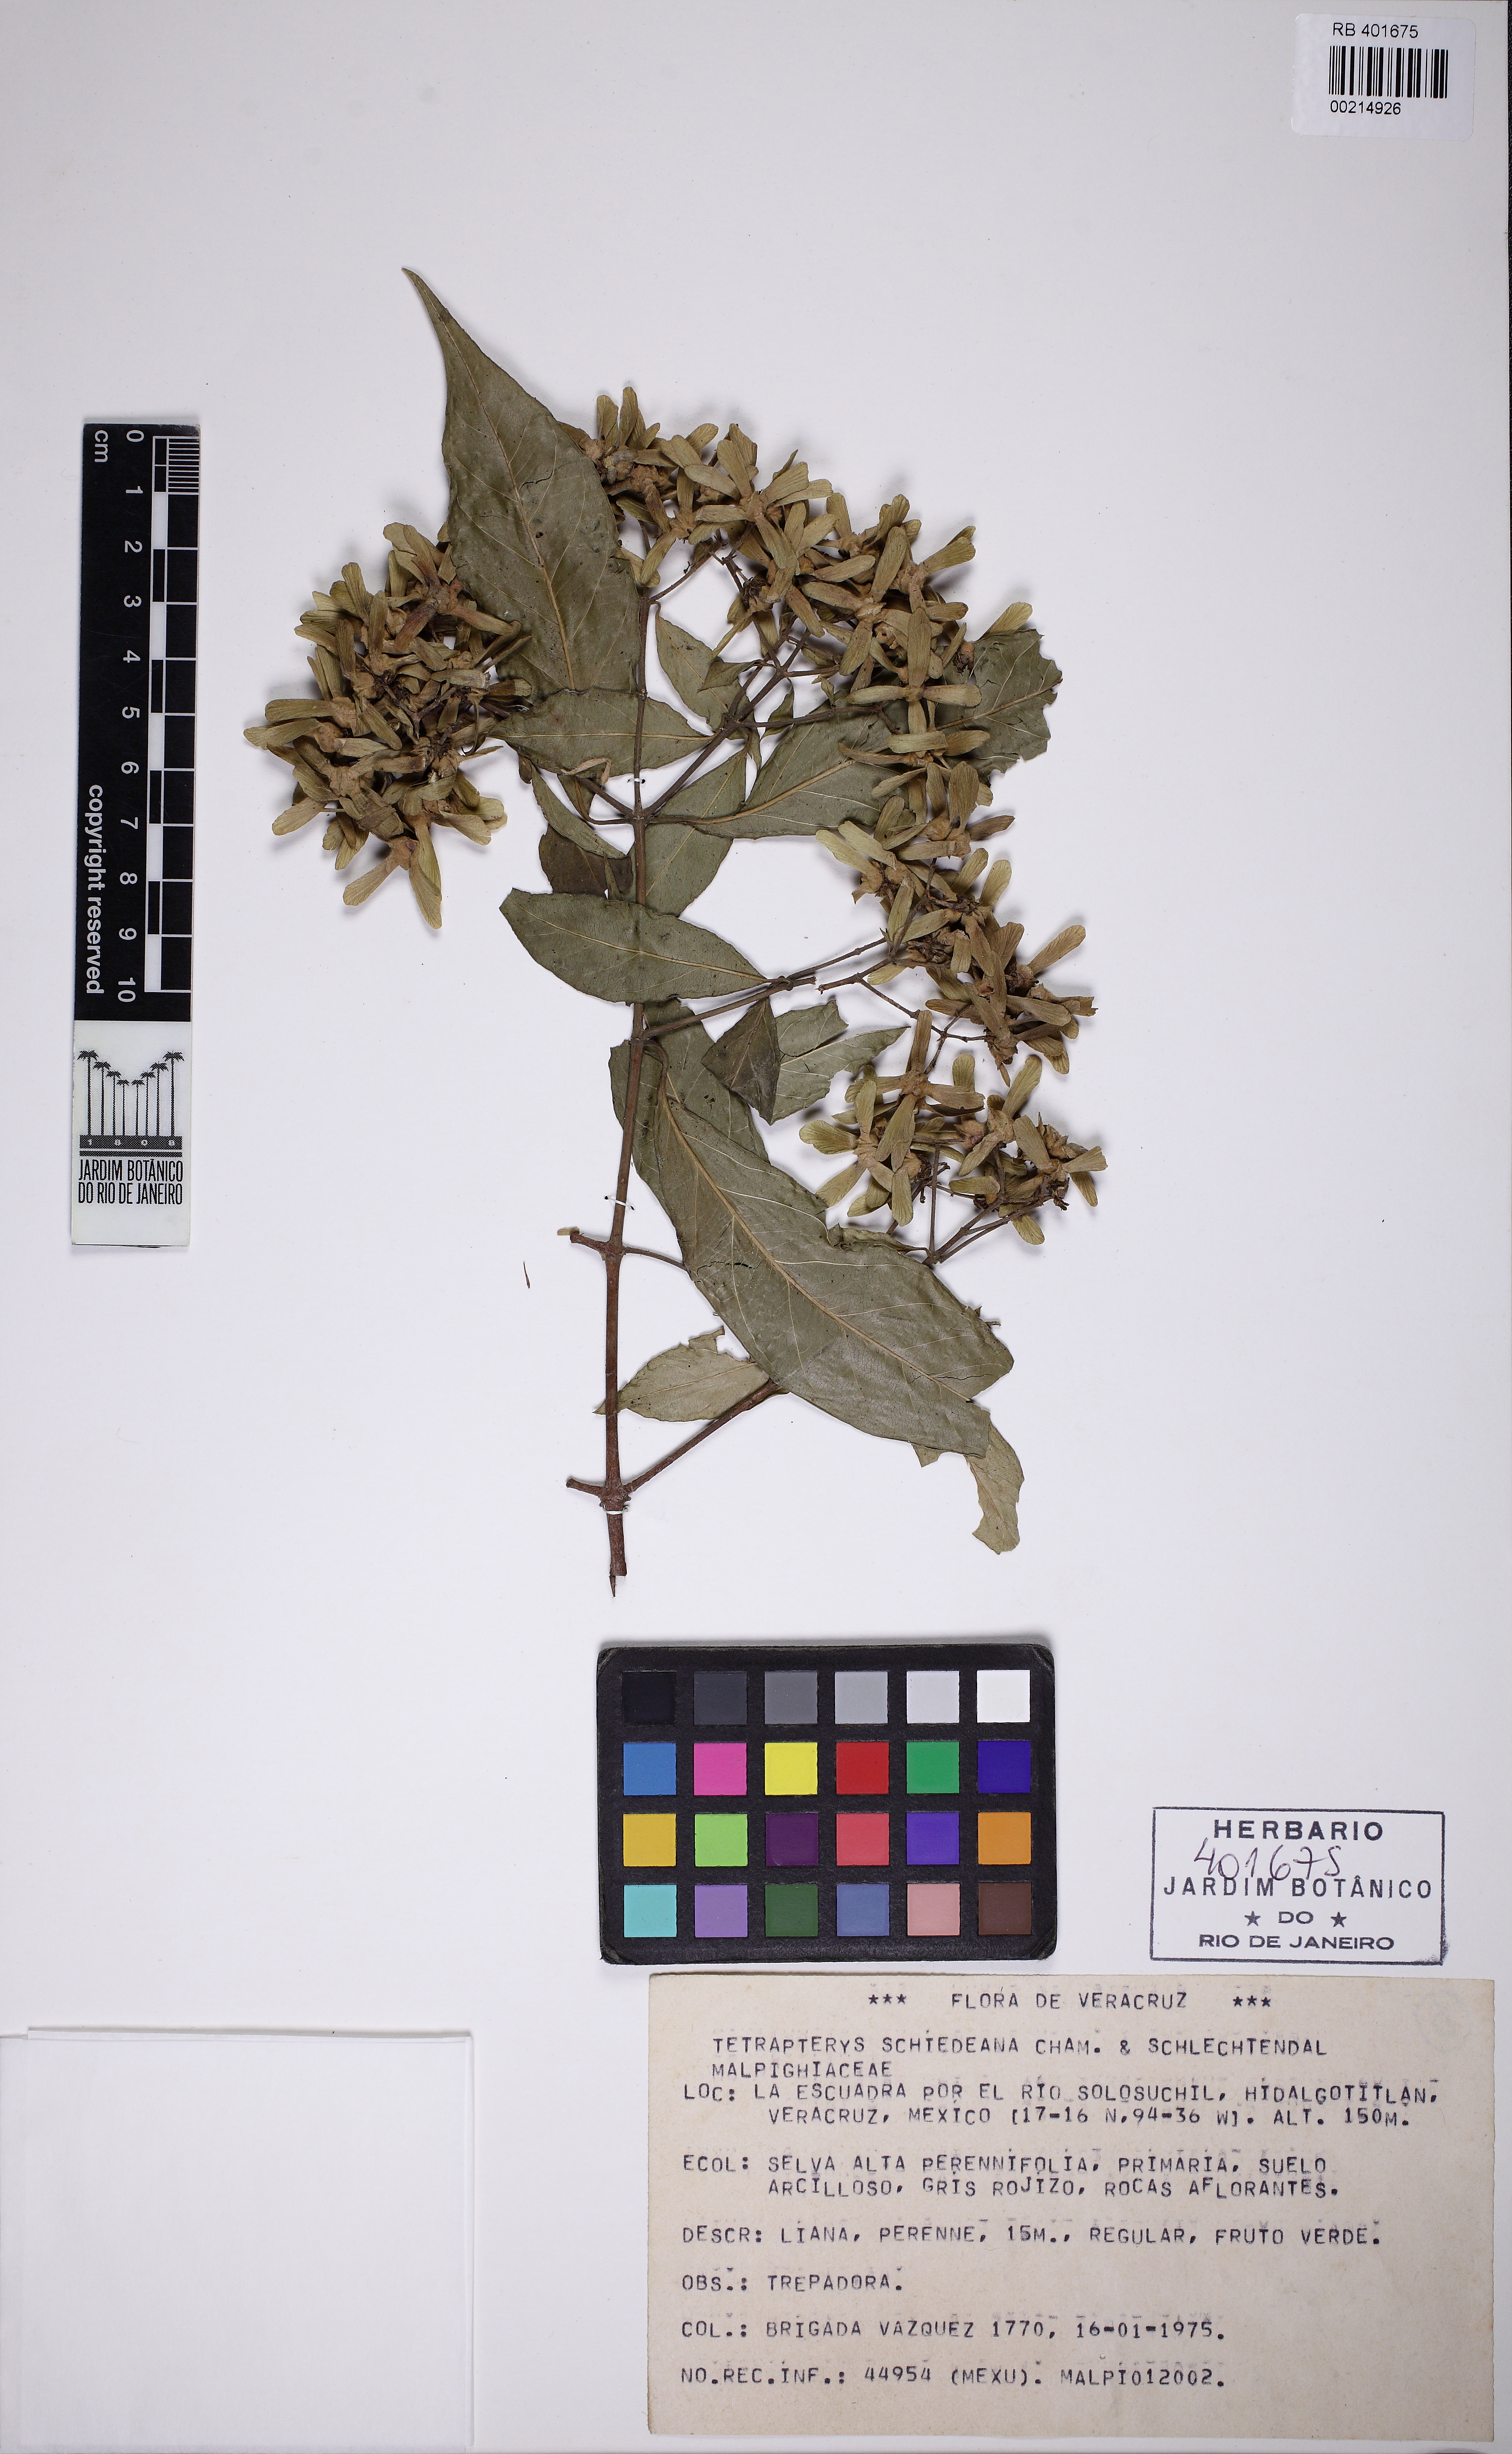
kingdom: Plantae
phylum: Tracheophyta
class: Magnoliopsida
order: Malpighiales
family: Malpighiaceae
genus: Tetrapterys
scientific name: Tetrapterys schiedeana
